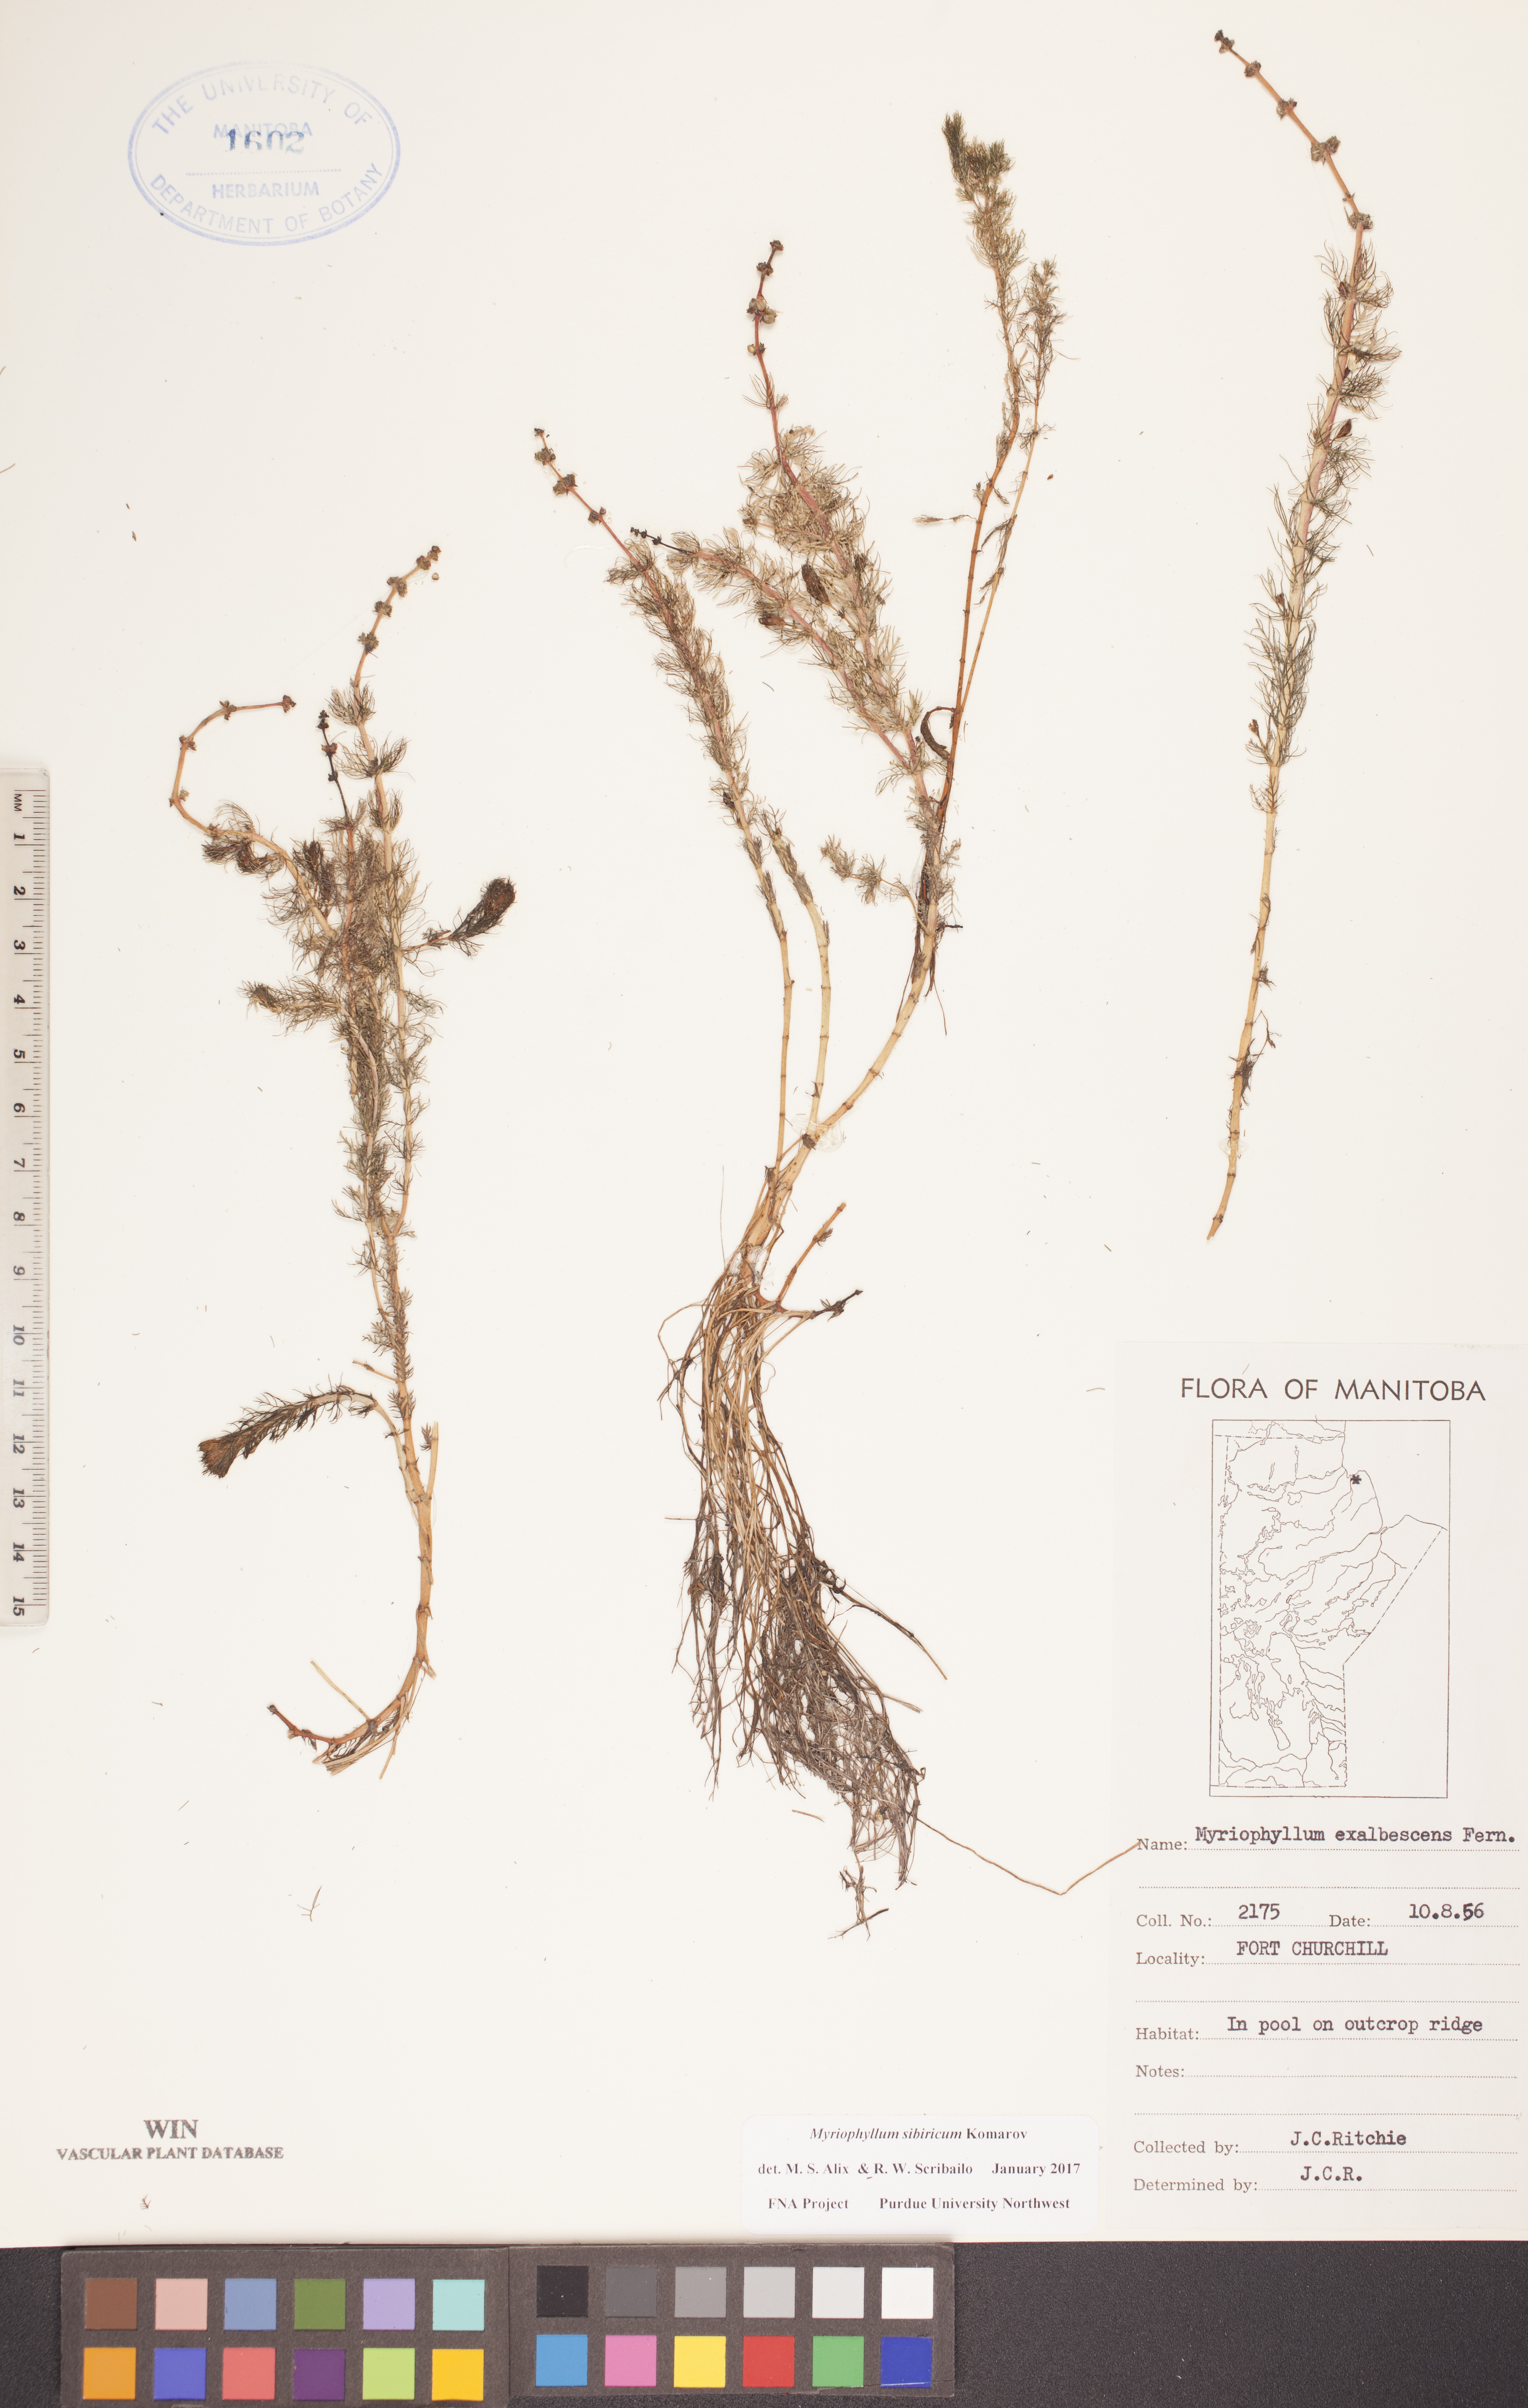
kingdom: Plantae
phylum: Tracheophyta
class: Magnoliopsida
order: Saxifragales
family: Haloragaceae
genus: Myriophyllum
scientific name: Myriophyllum sibiricum
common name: Siberian water-milfoil
